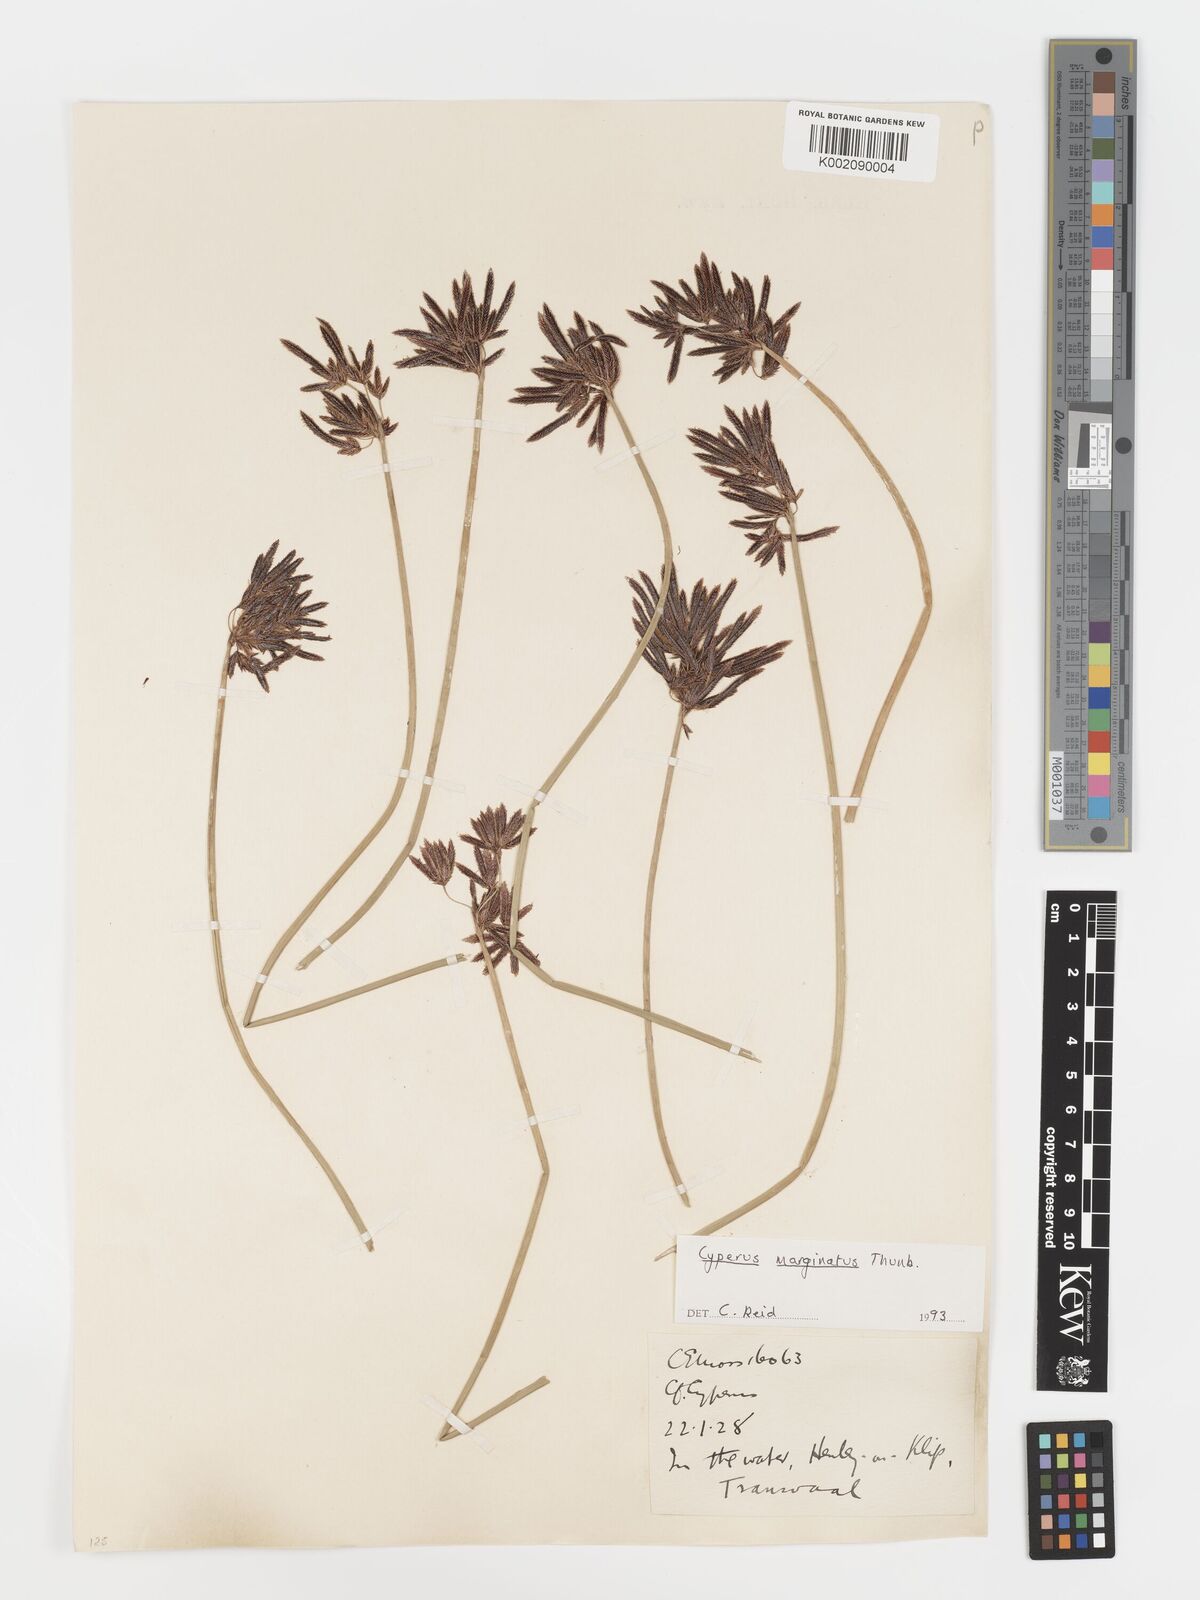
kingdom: Plantae
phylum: Tracheophyta
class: Liliopsida
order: Poales
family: Cyperaceae
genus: Cyperus
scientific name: Cyperus marginatus
